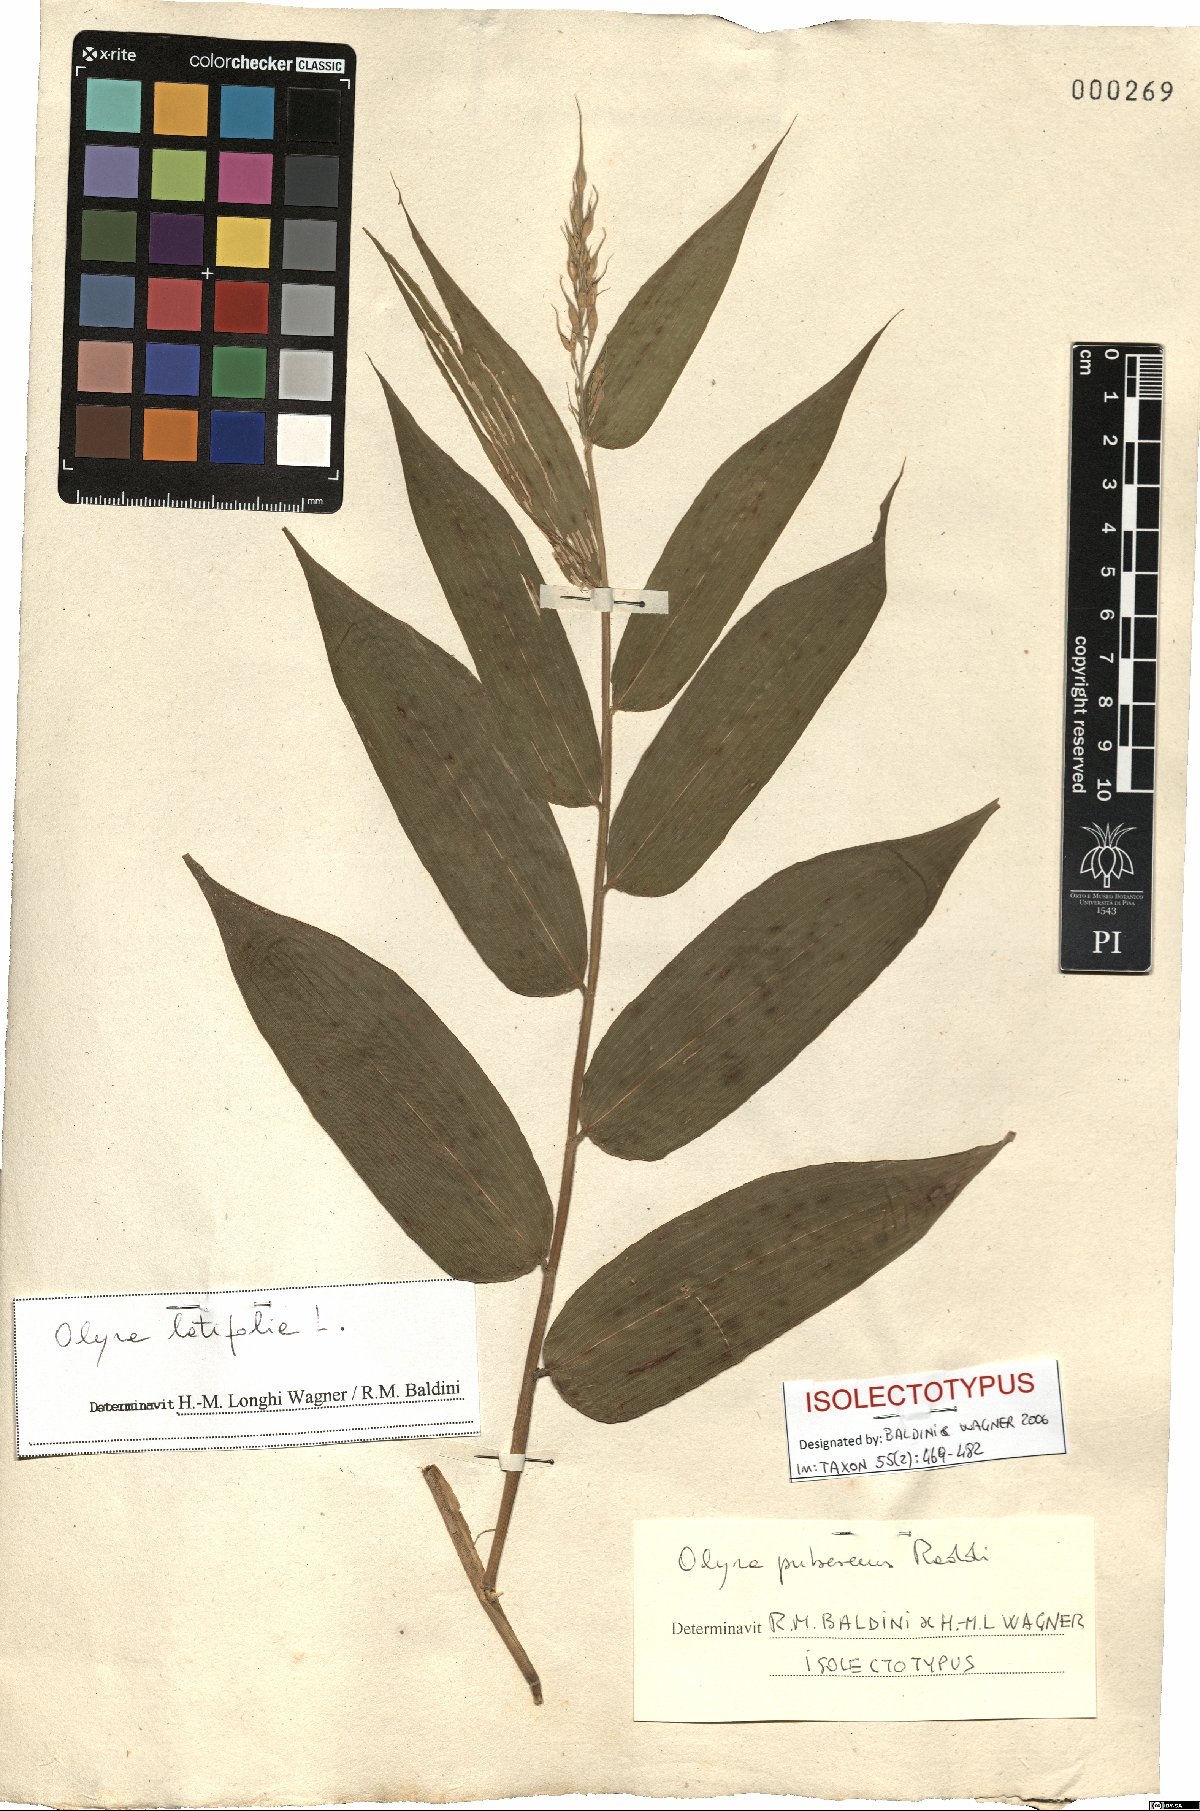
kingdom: Plantae
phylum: Tracheophyta
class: Liliopsida
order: Poales
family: Poaceae
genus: Olyra
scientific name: Olyra latifolia
